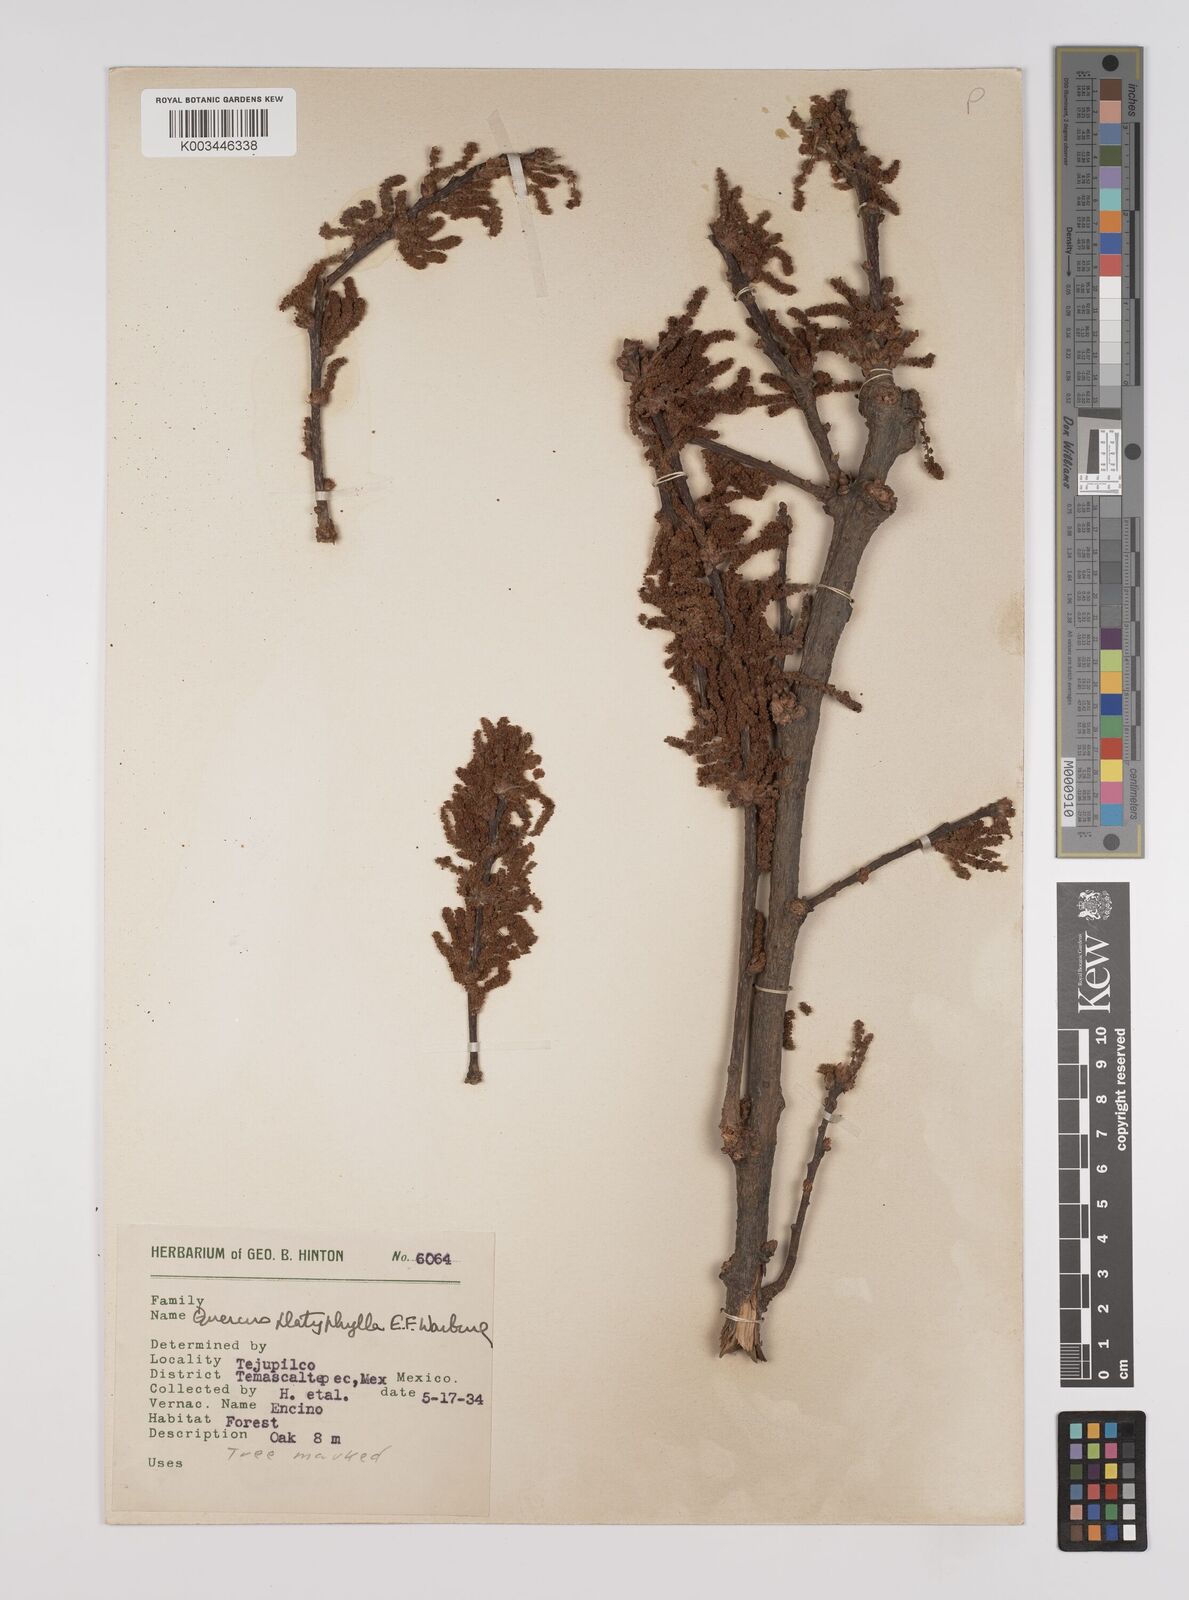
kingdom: Plantae
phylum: Tracheophyta
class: Magnoliopsida
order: Fagales
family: Fagaceae
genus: Quercus
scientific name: Quercus
